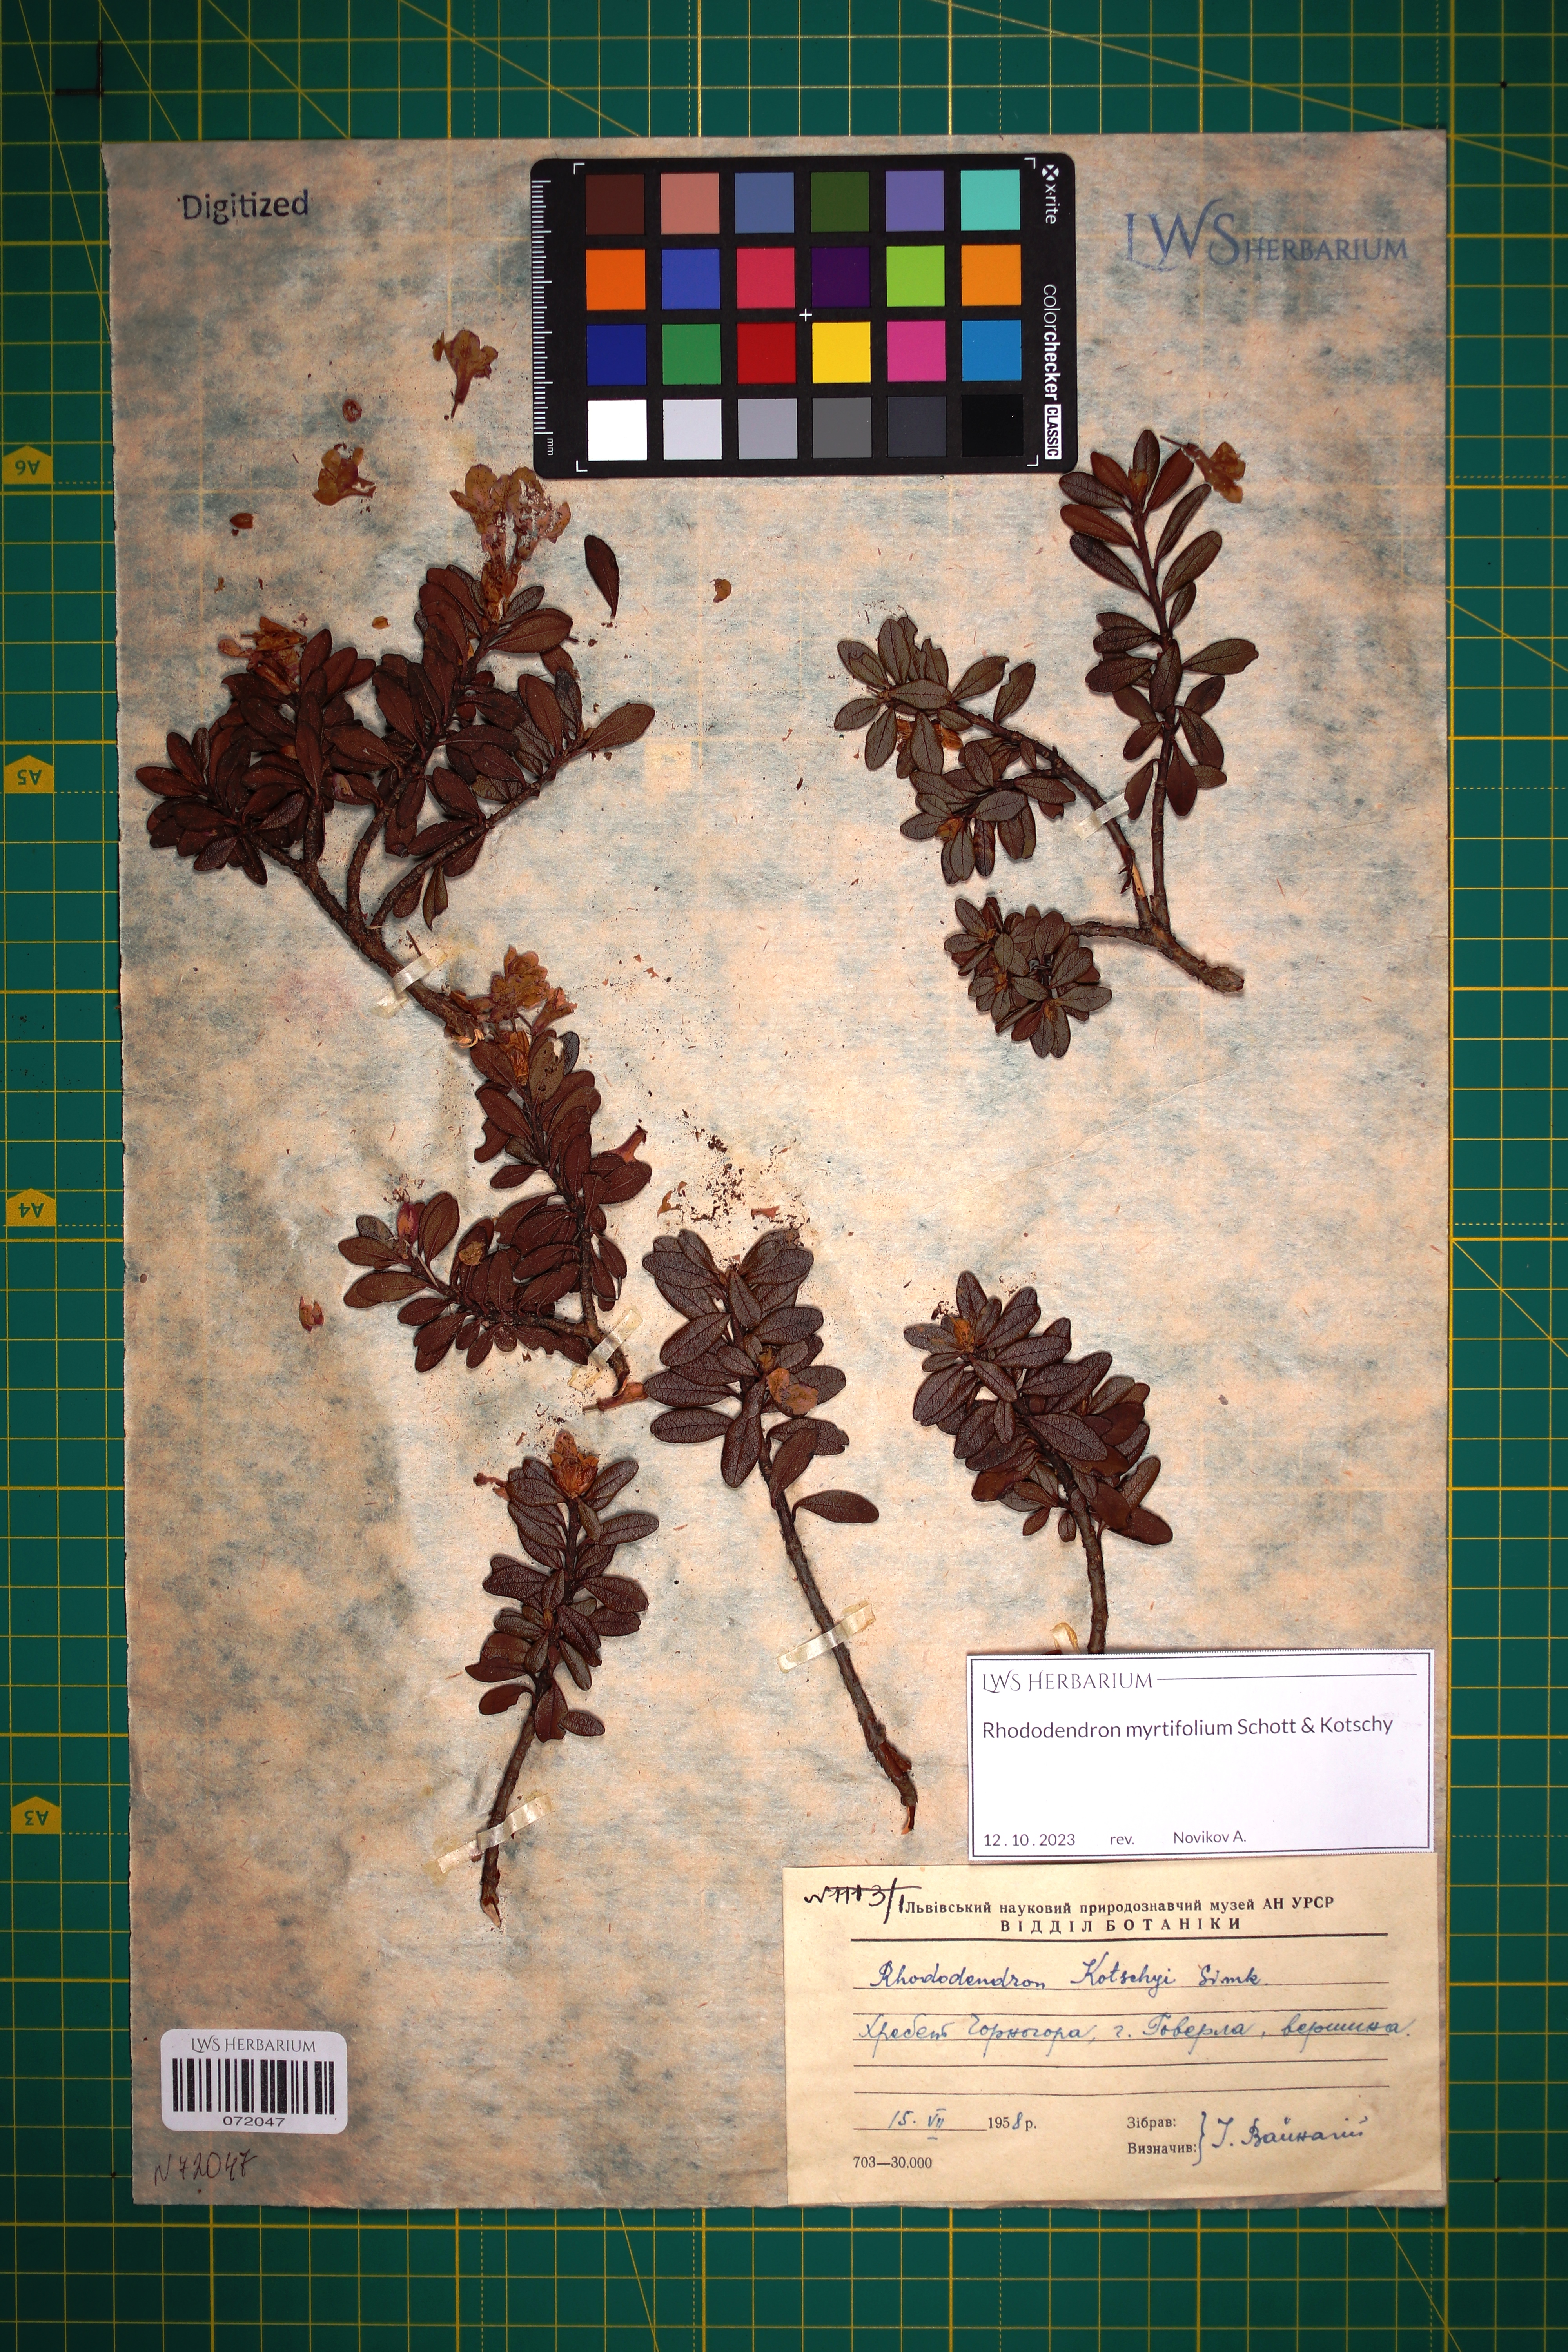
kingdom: Plantae
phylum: Tracheophyta
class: Magnoliopsida
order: Ericales
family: Ericaceae
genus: Rhododendron
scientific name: Rhododendron kotschyi
